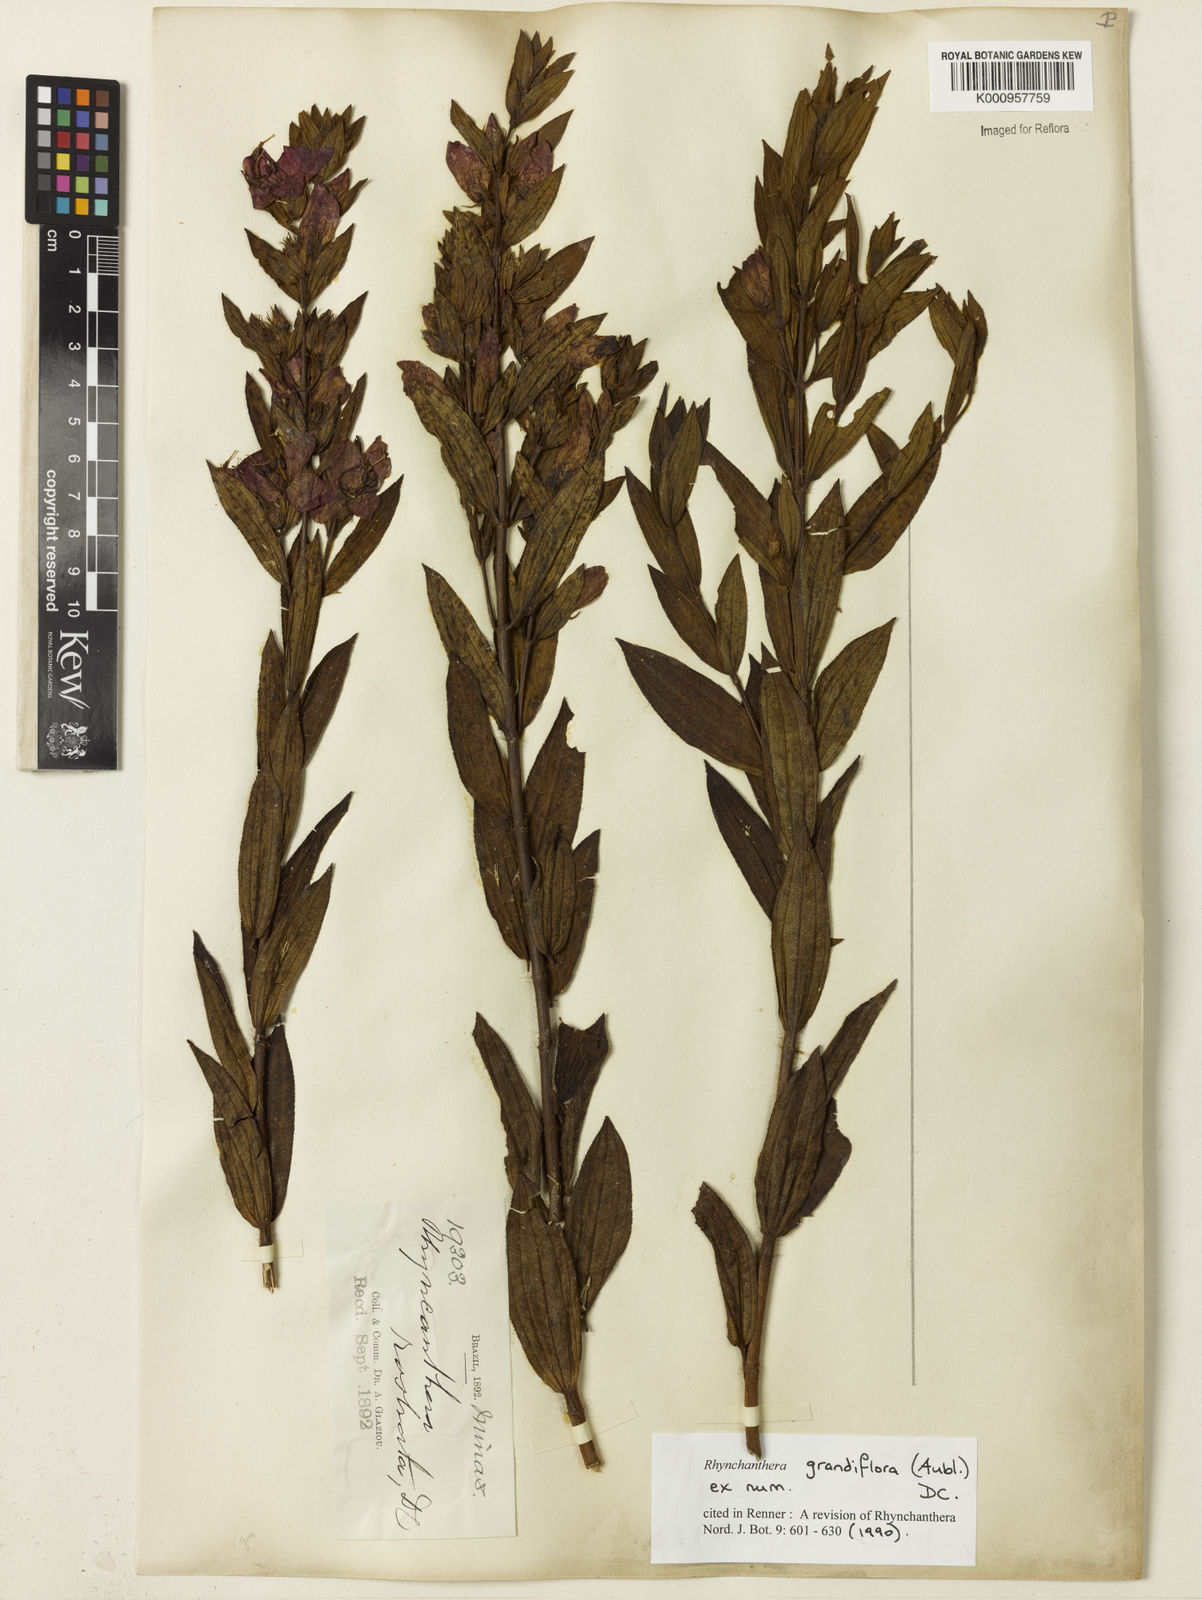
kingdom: Plantae
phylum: Tracheophyta
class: Magnoliopsida
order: Myrtales
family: Melastomataceae
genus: Rhynchanthera
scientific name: Rhynchanthera grandiflora
